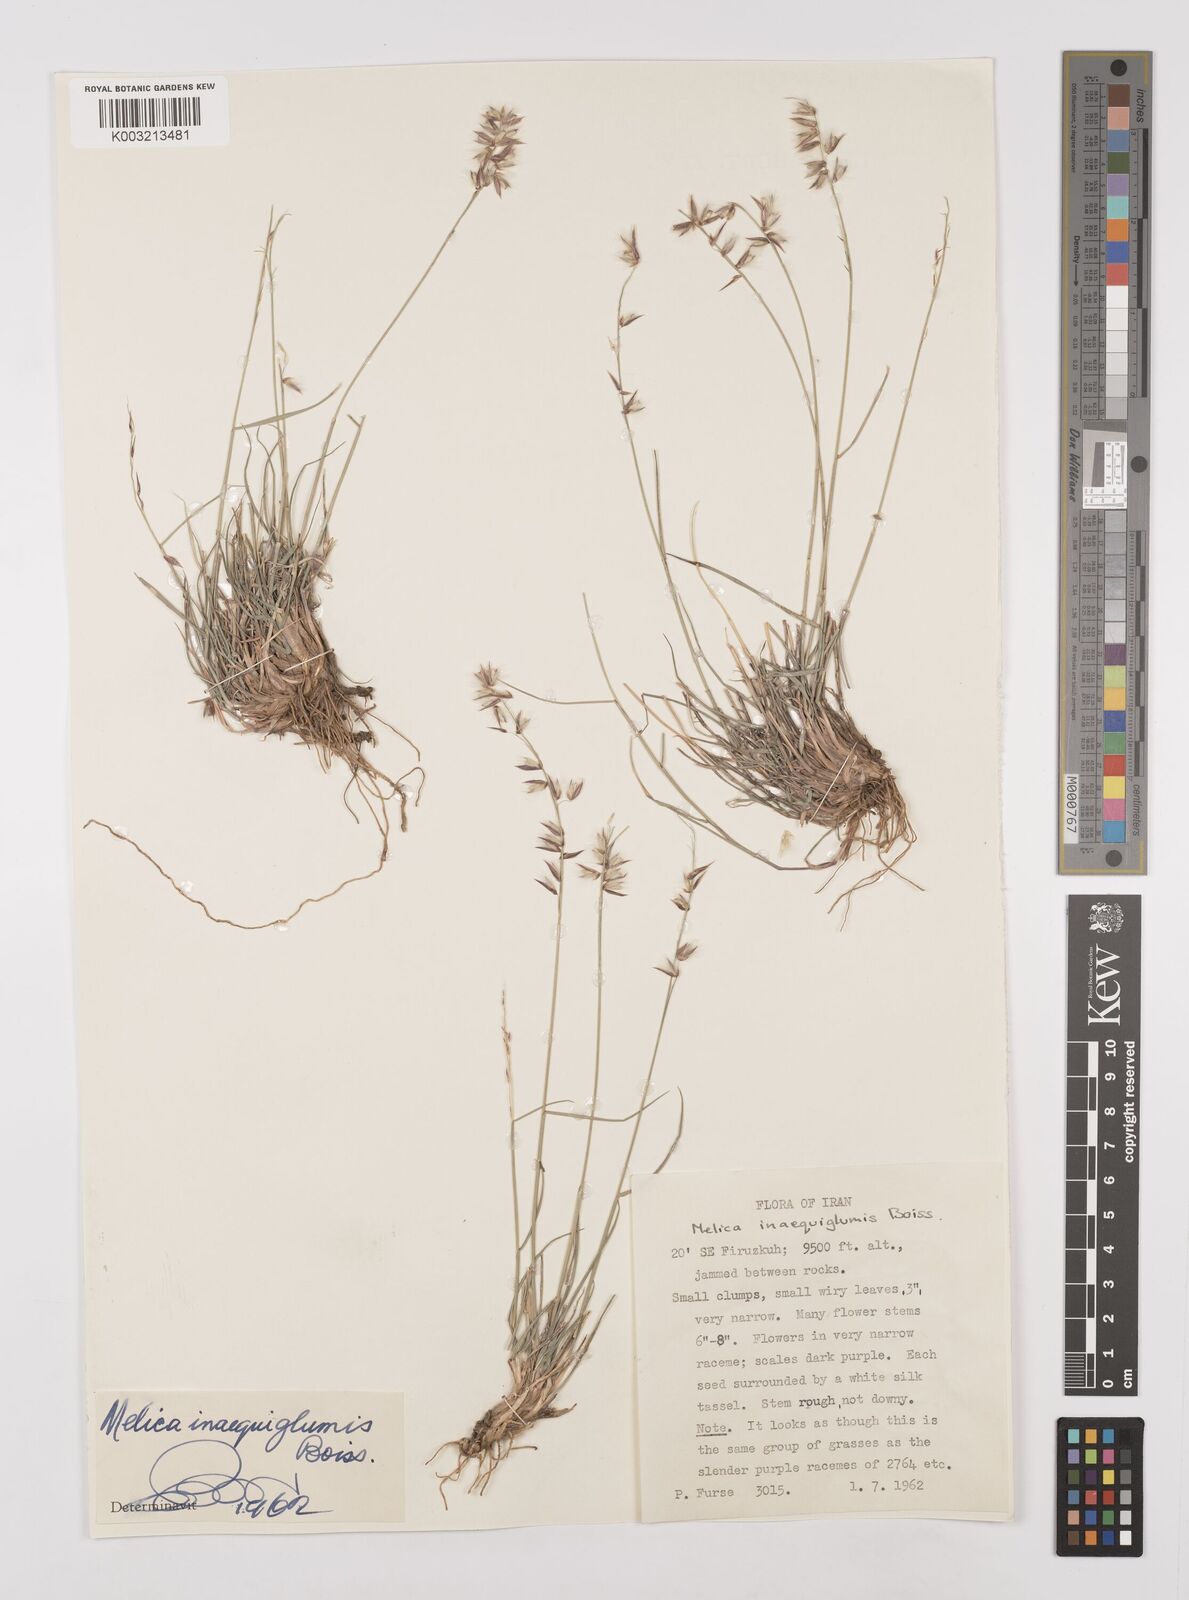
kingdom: Plantae
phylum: Tracheophyta
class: Liliopsida
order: Poales
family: Poaceae
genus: Melica
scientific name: Melica persica
